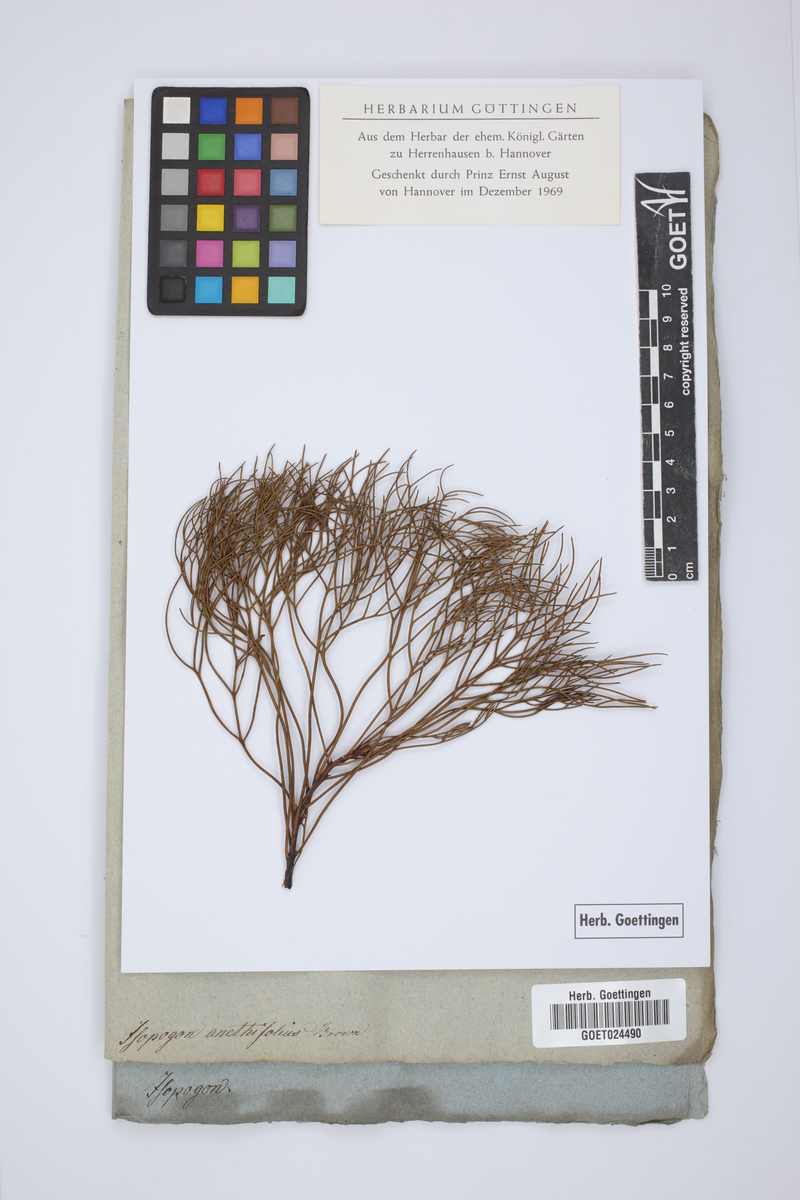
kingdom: Plantae
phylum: Tracheophyta
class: Magnoliopsida
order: Proteales
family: Proteaceae
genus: Isopogon
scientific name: Isopogon anethifolius
